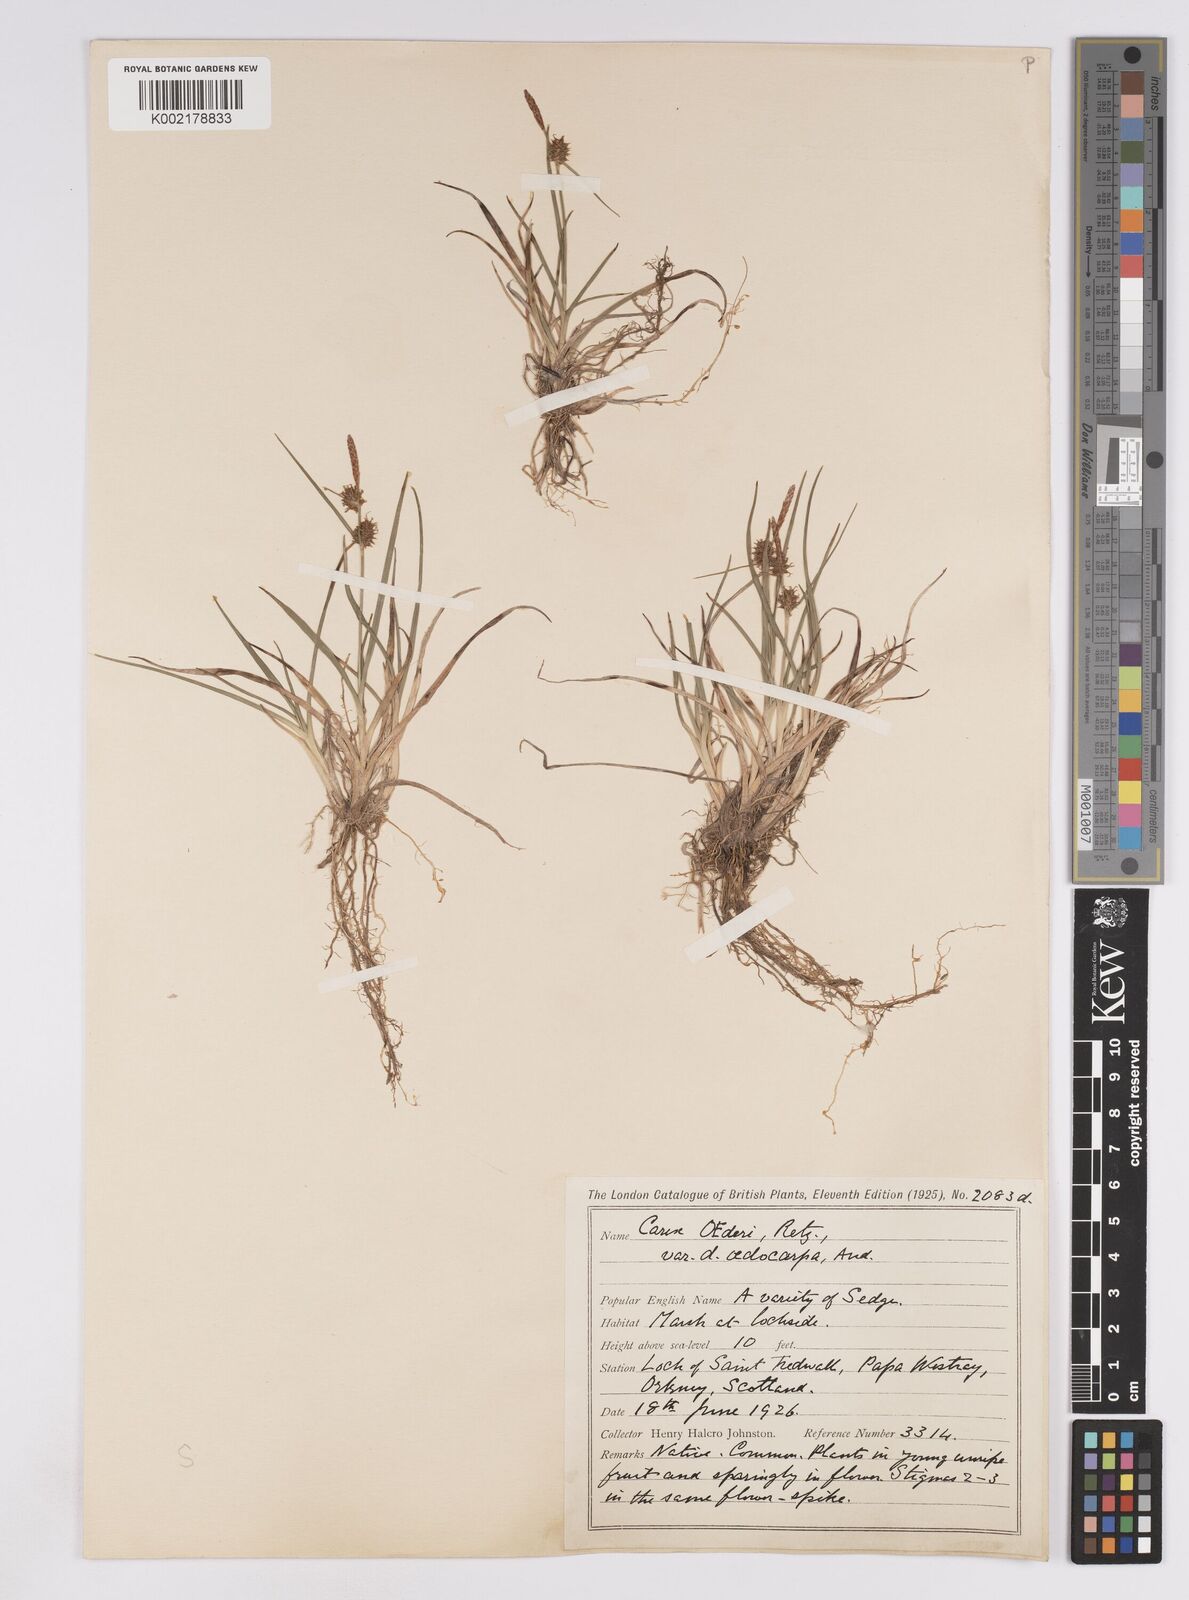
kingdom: Plantae
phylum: Tracheophyta
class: Liliopsida
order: Poales
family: Cyperaceae
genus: Carex
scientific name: Carex lepidocarpa
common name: Long-stalked yellow-sedge
